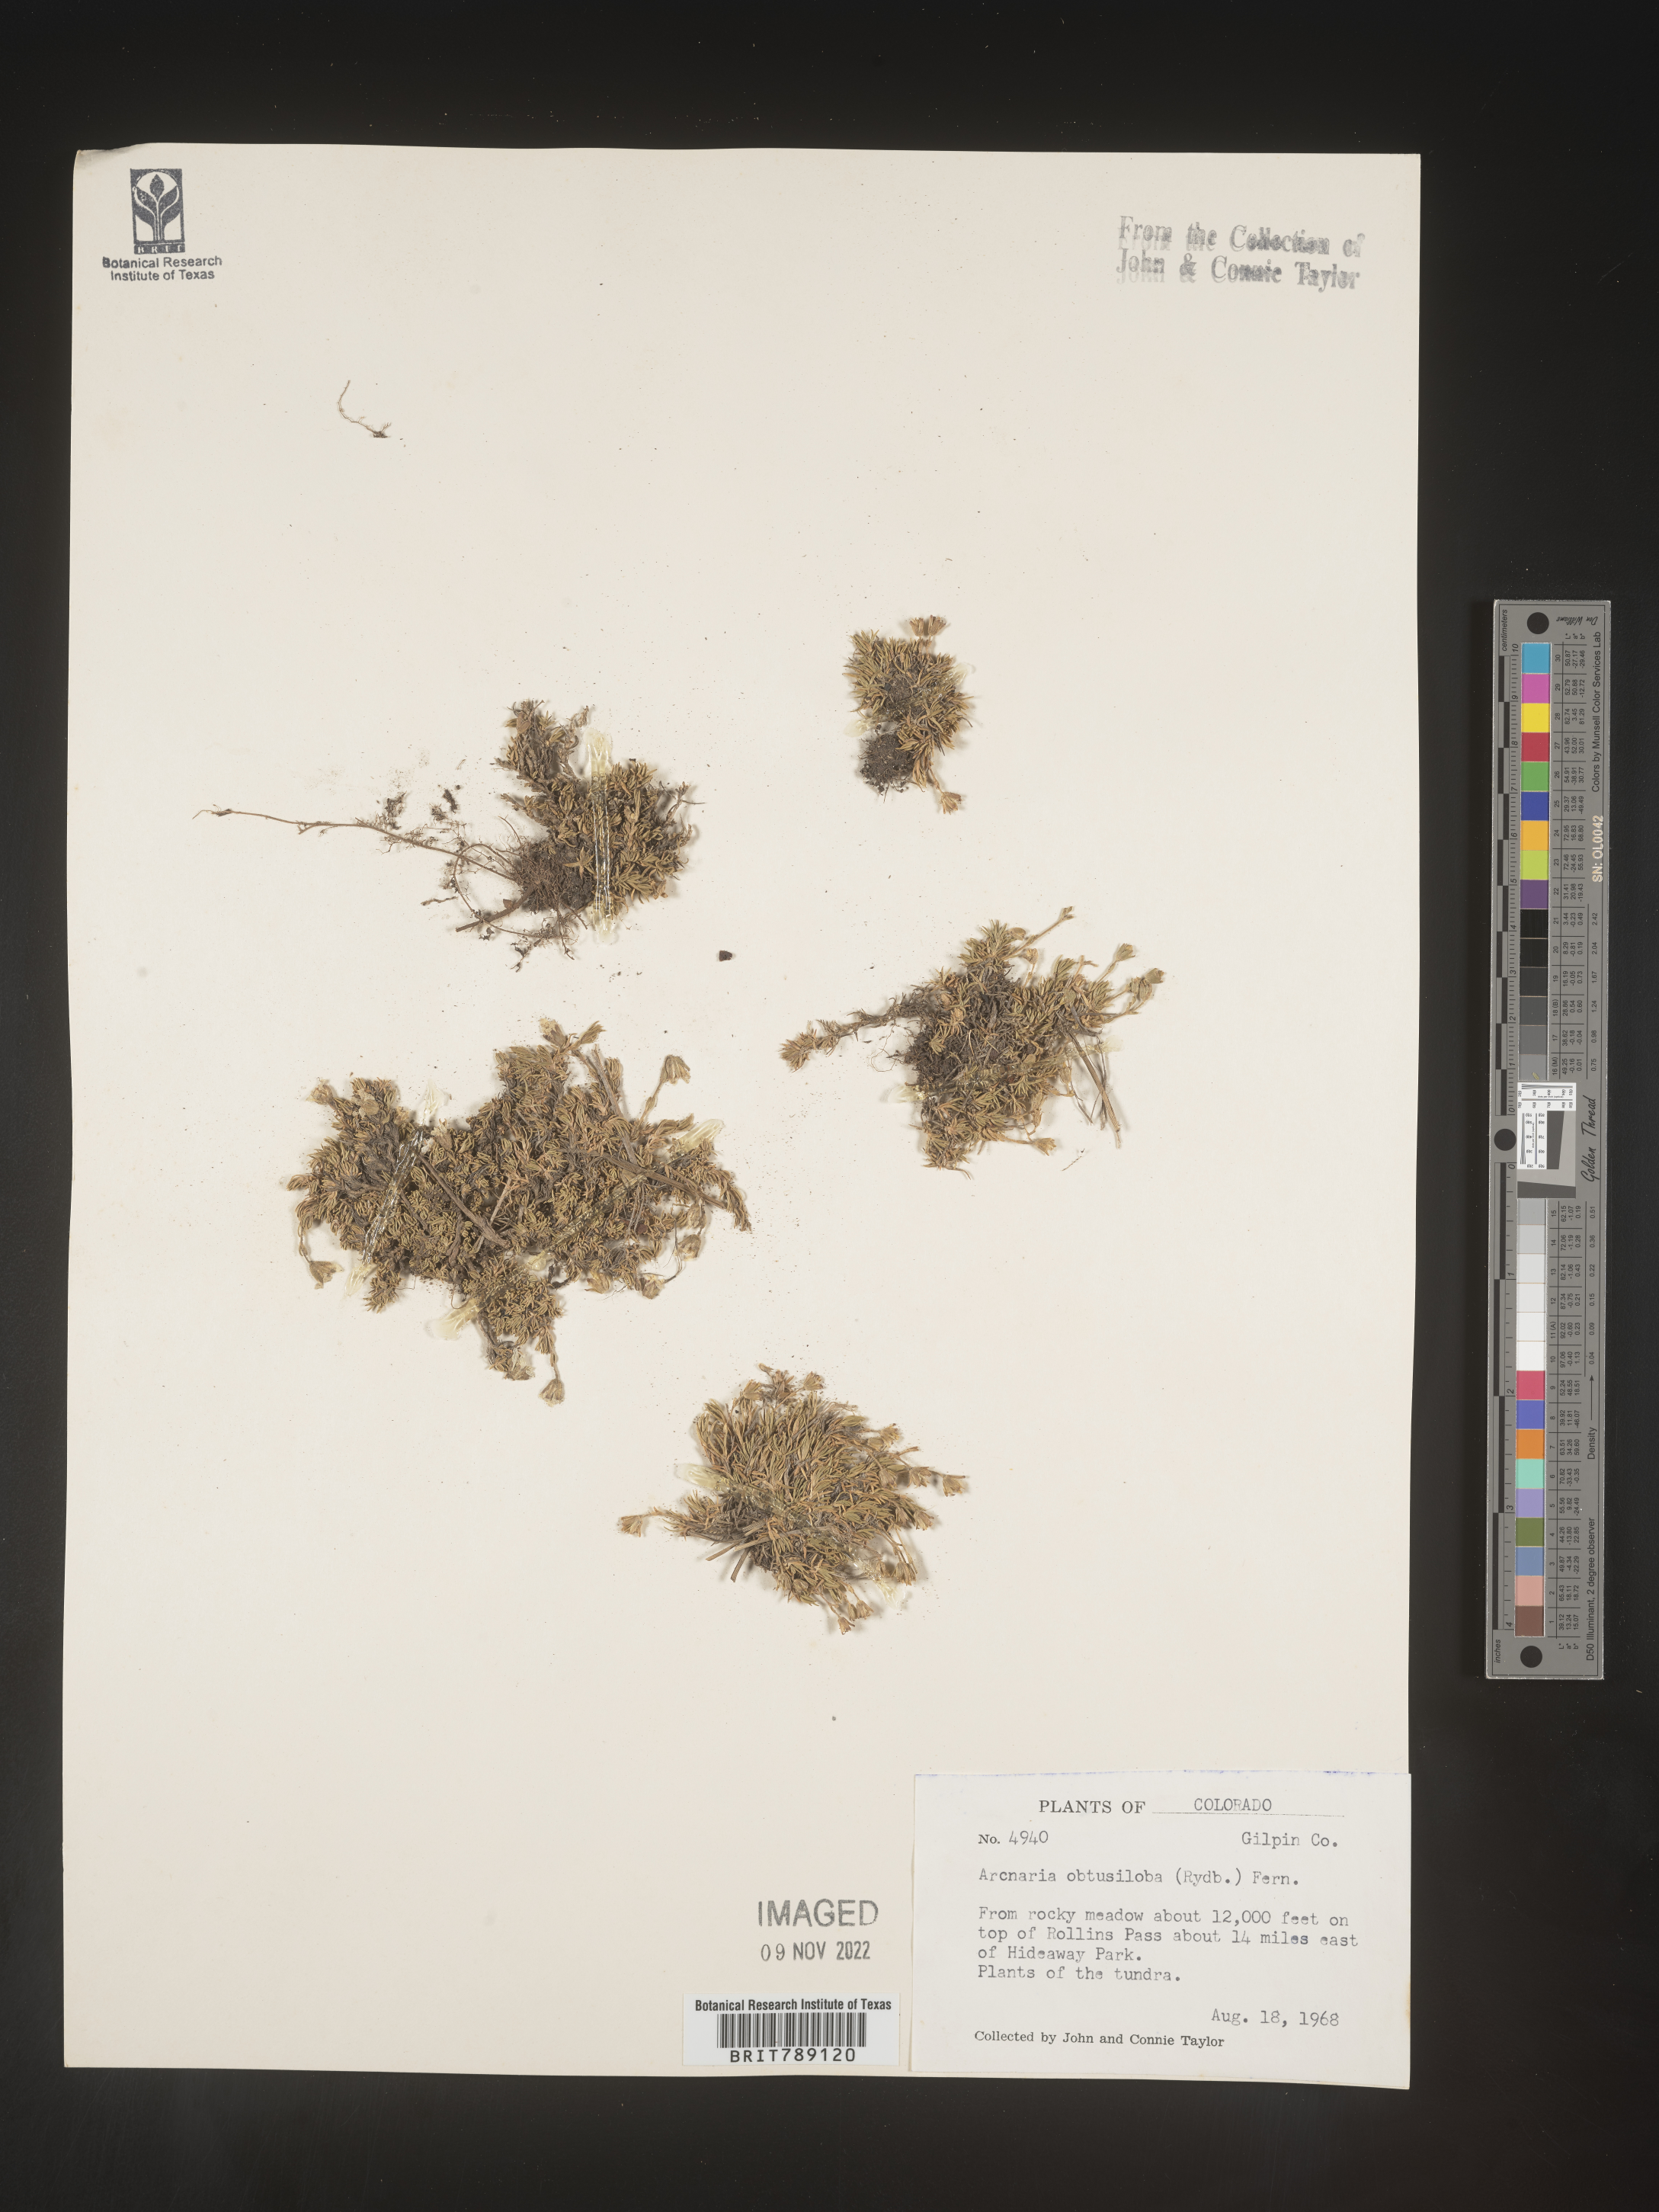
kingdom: Plantae
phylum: Tracheophyta
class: Magnoliopsida
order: Caryophyllales
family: Caryophyllaceae
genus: Arenaria
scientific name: Arenaria
